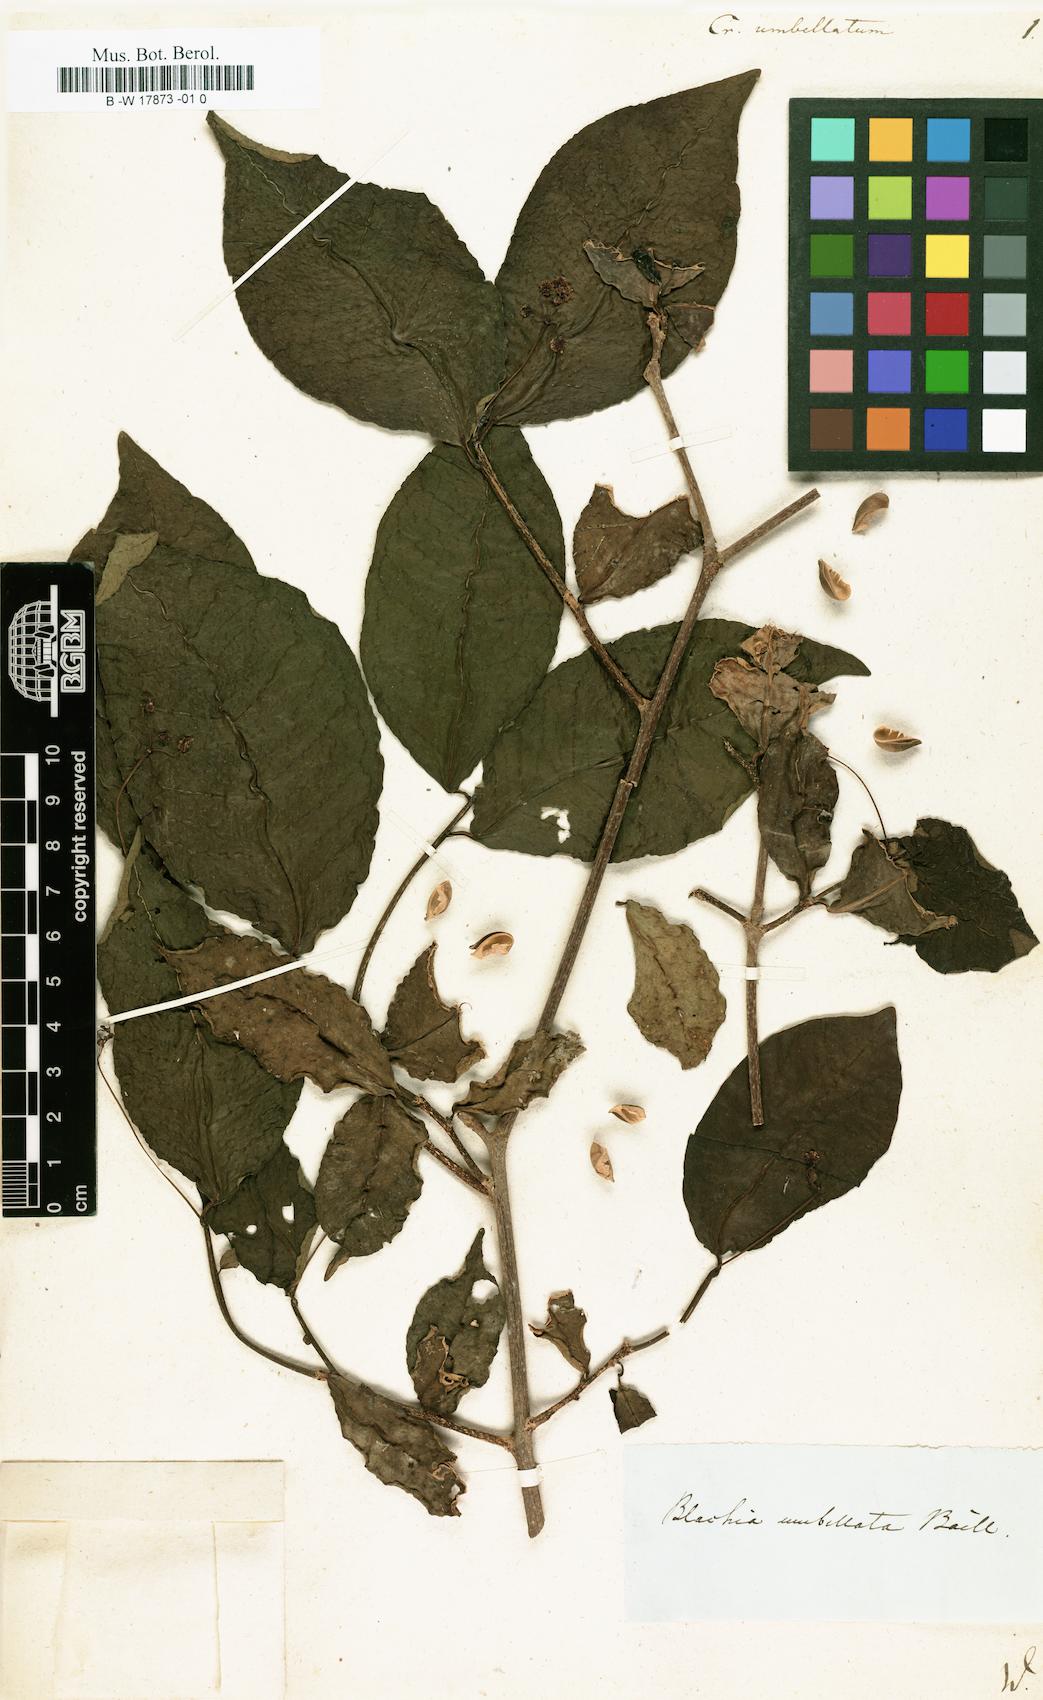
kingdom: Plantae
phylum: Tracheophyta
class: Magnoliopsida
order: Malpighiales
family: Euphorbiaceae
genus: Croton
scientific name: Croton umbellatus
